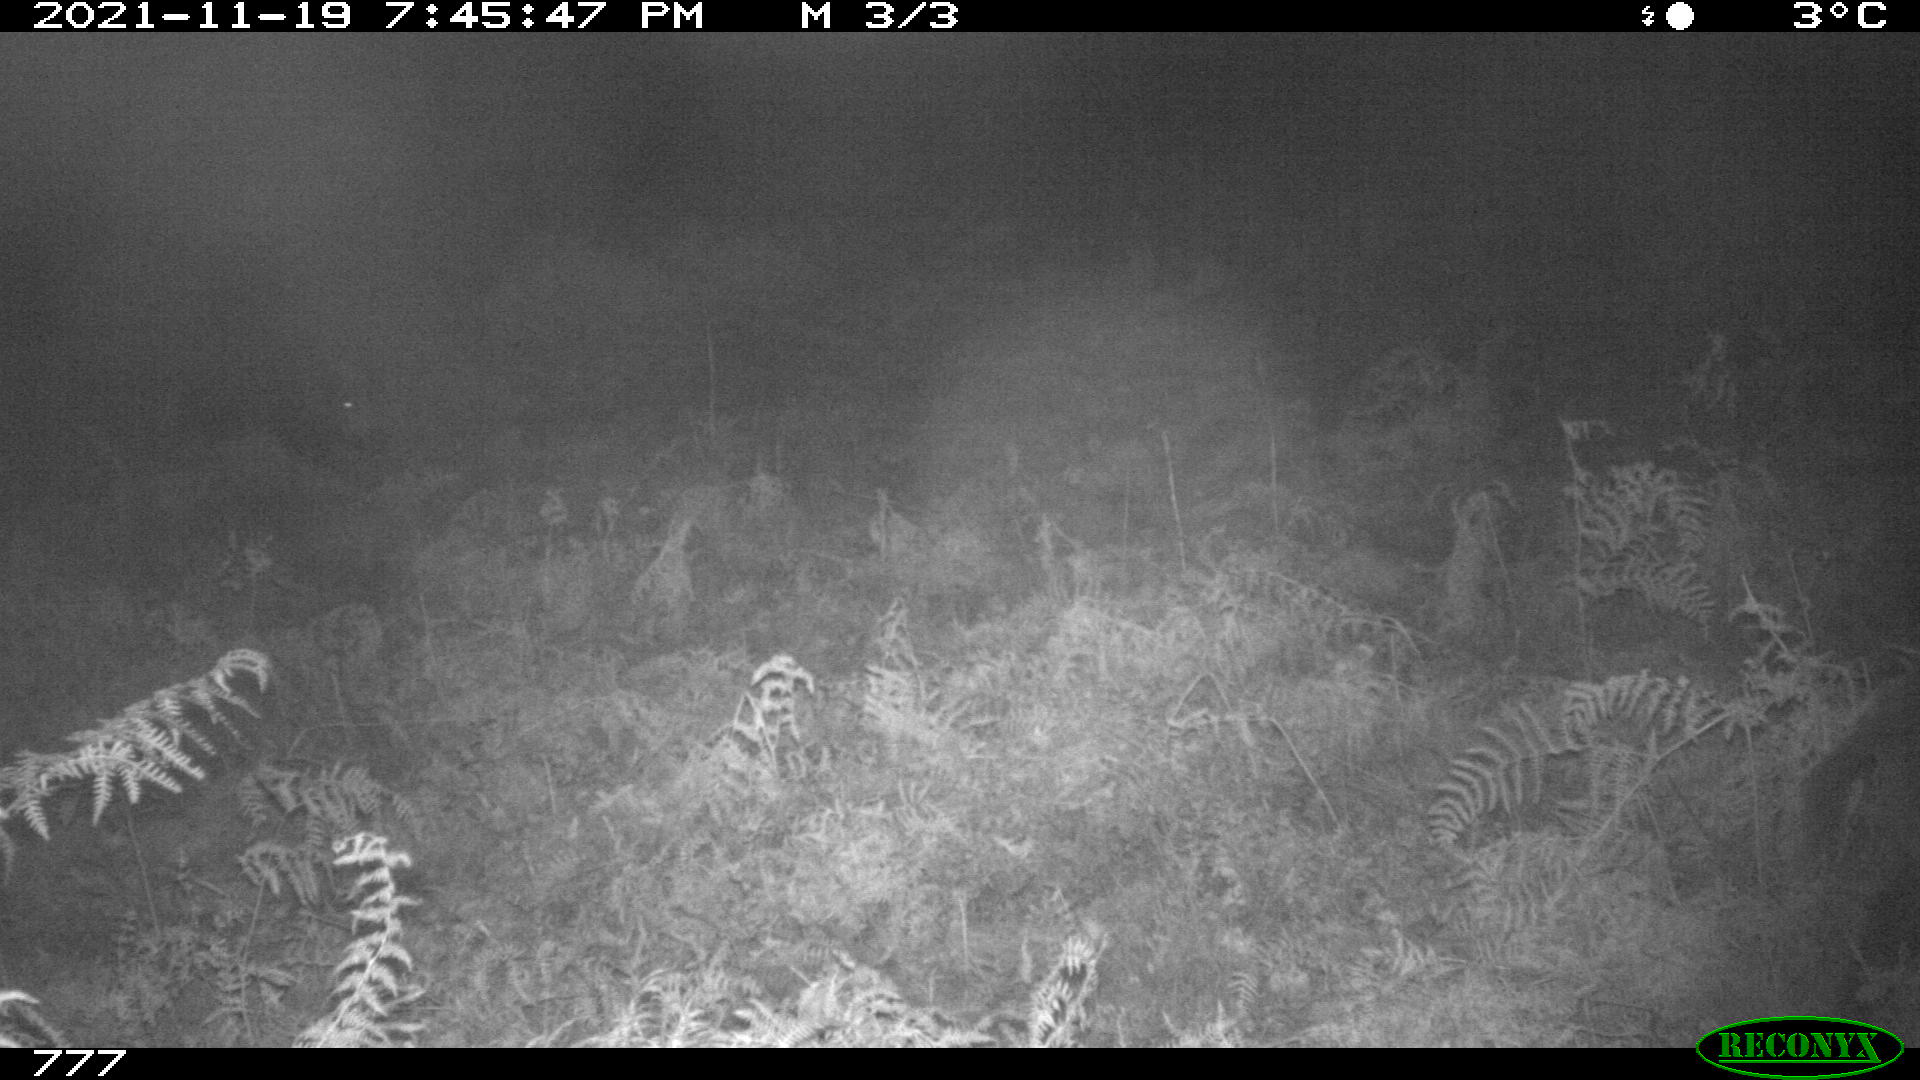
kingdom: Animalia
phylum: Chordata
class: Mammalia
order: Artiodactyla
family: Suidae
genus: Sus
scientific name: Sus scrofa
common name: Wild boar
